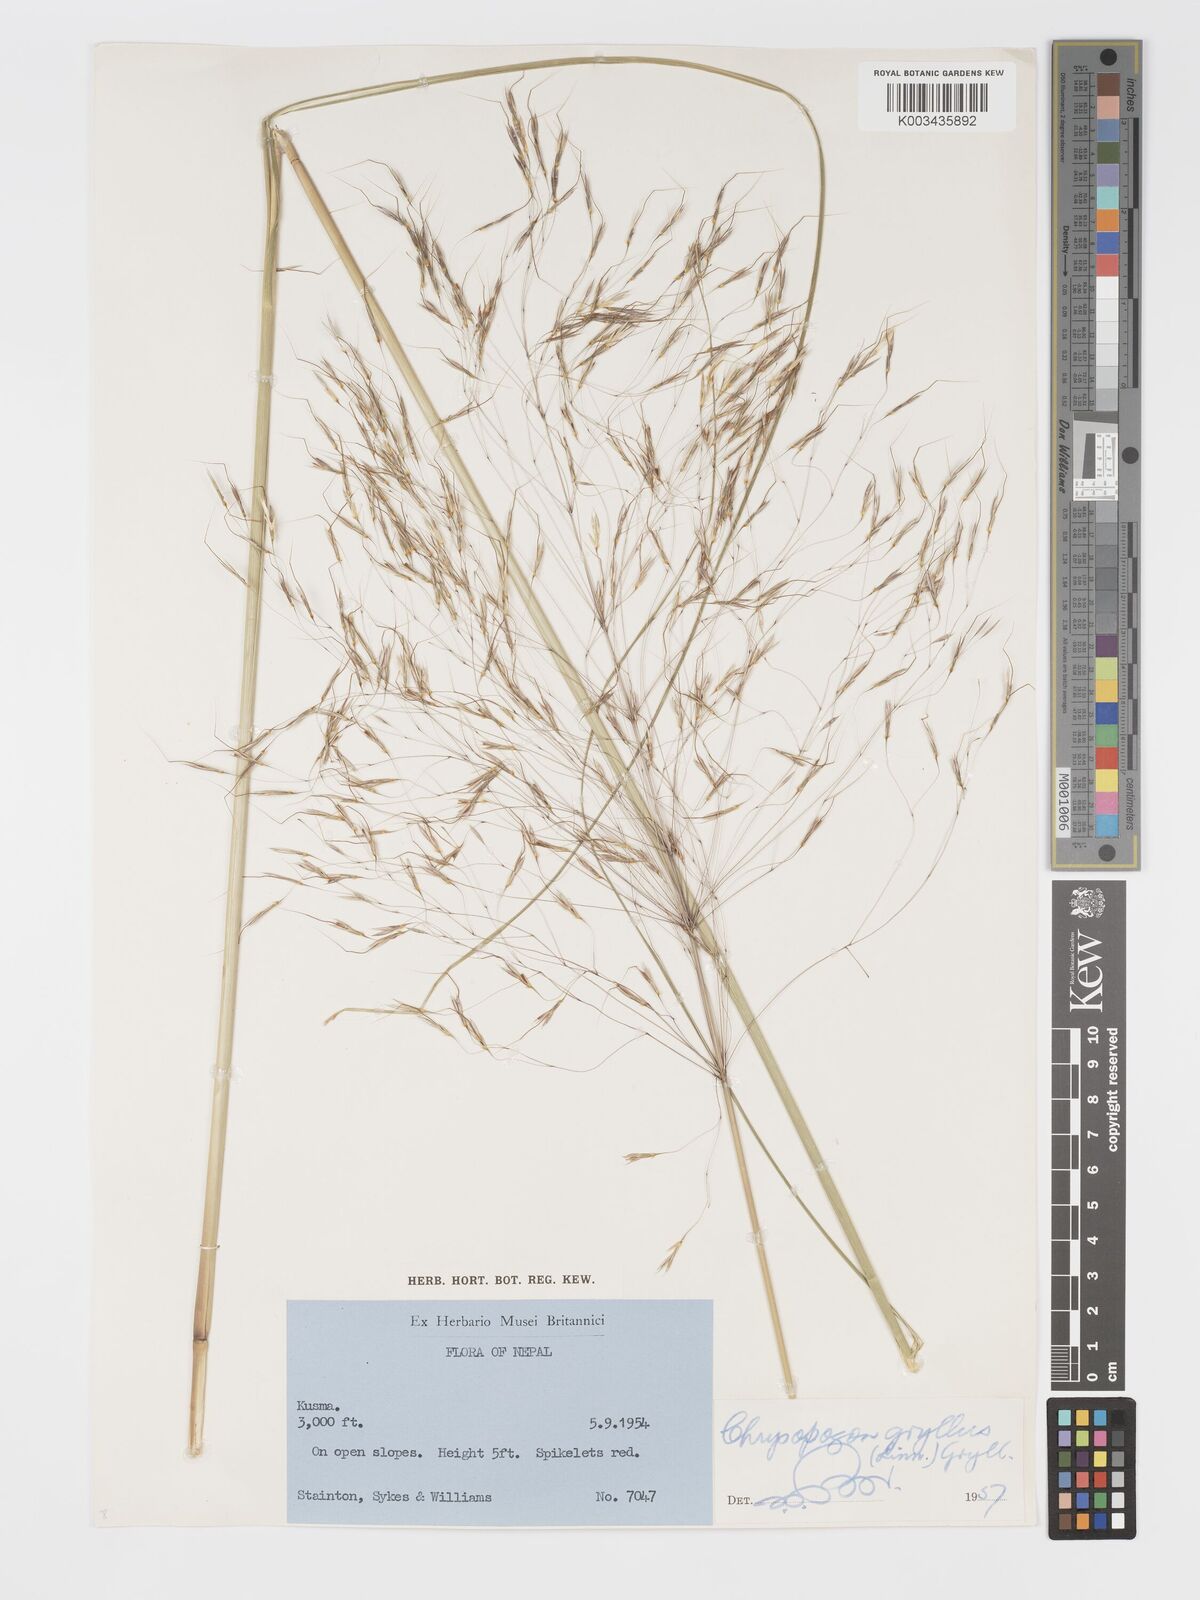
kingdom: Plantae
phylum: Tracheophyta
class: Liliopsida
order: Poales
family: Poaceae
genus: Chrysopogon
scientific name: Chrysopogon gryllus
